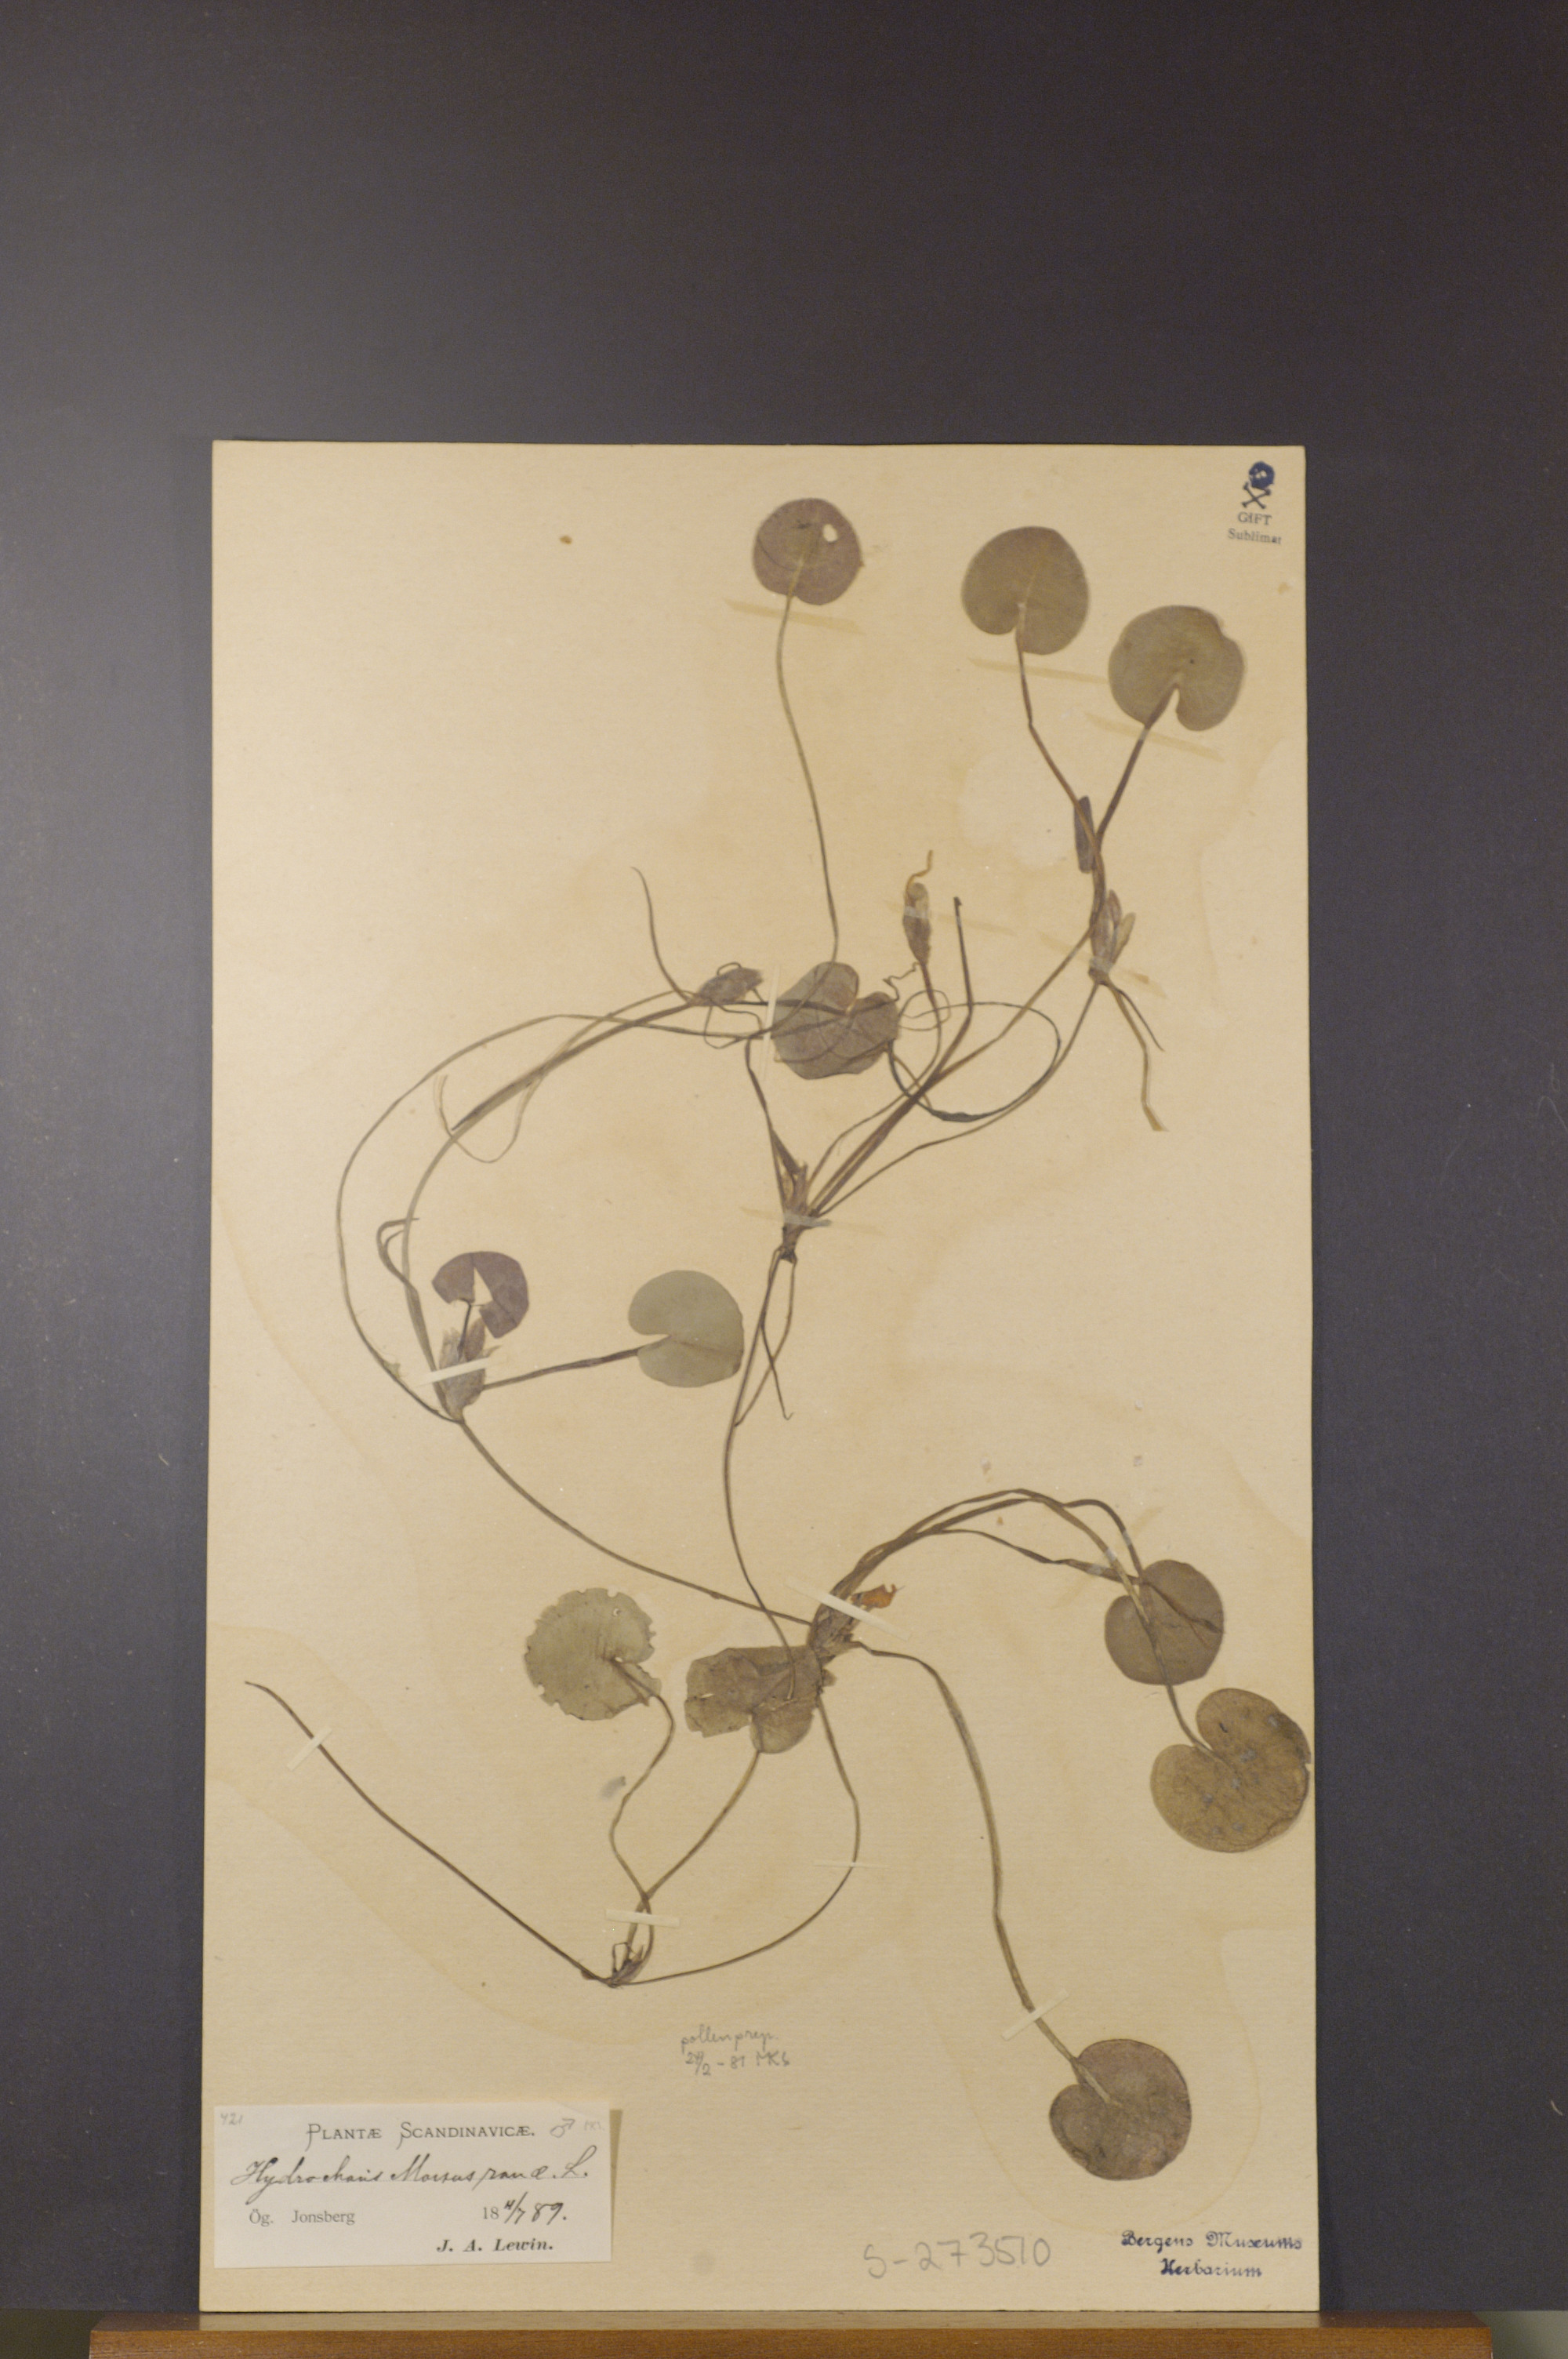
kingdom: Plantae
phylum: Tracheophyta
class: Liliopsida
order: Alismatales
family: Hydrocharitaceae
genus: Hydrocharis
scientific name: Hydrocharis morsus-ranae
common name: Frogbit
